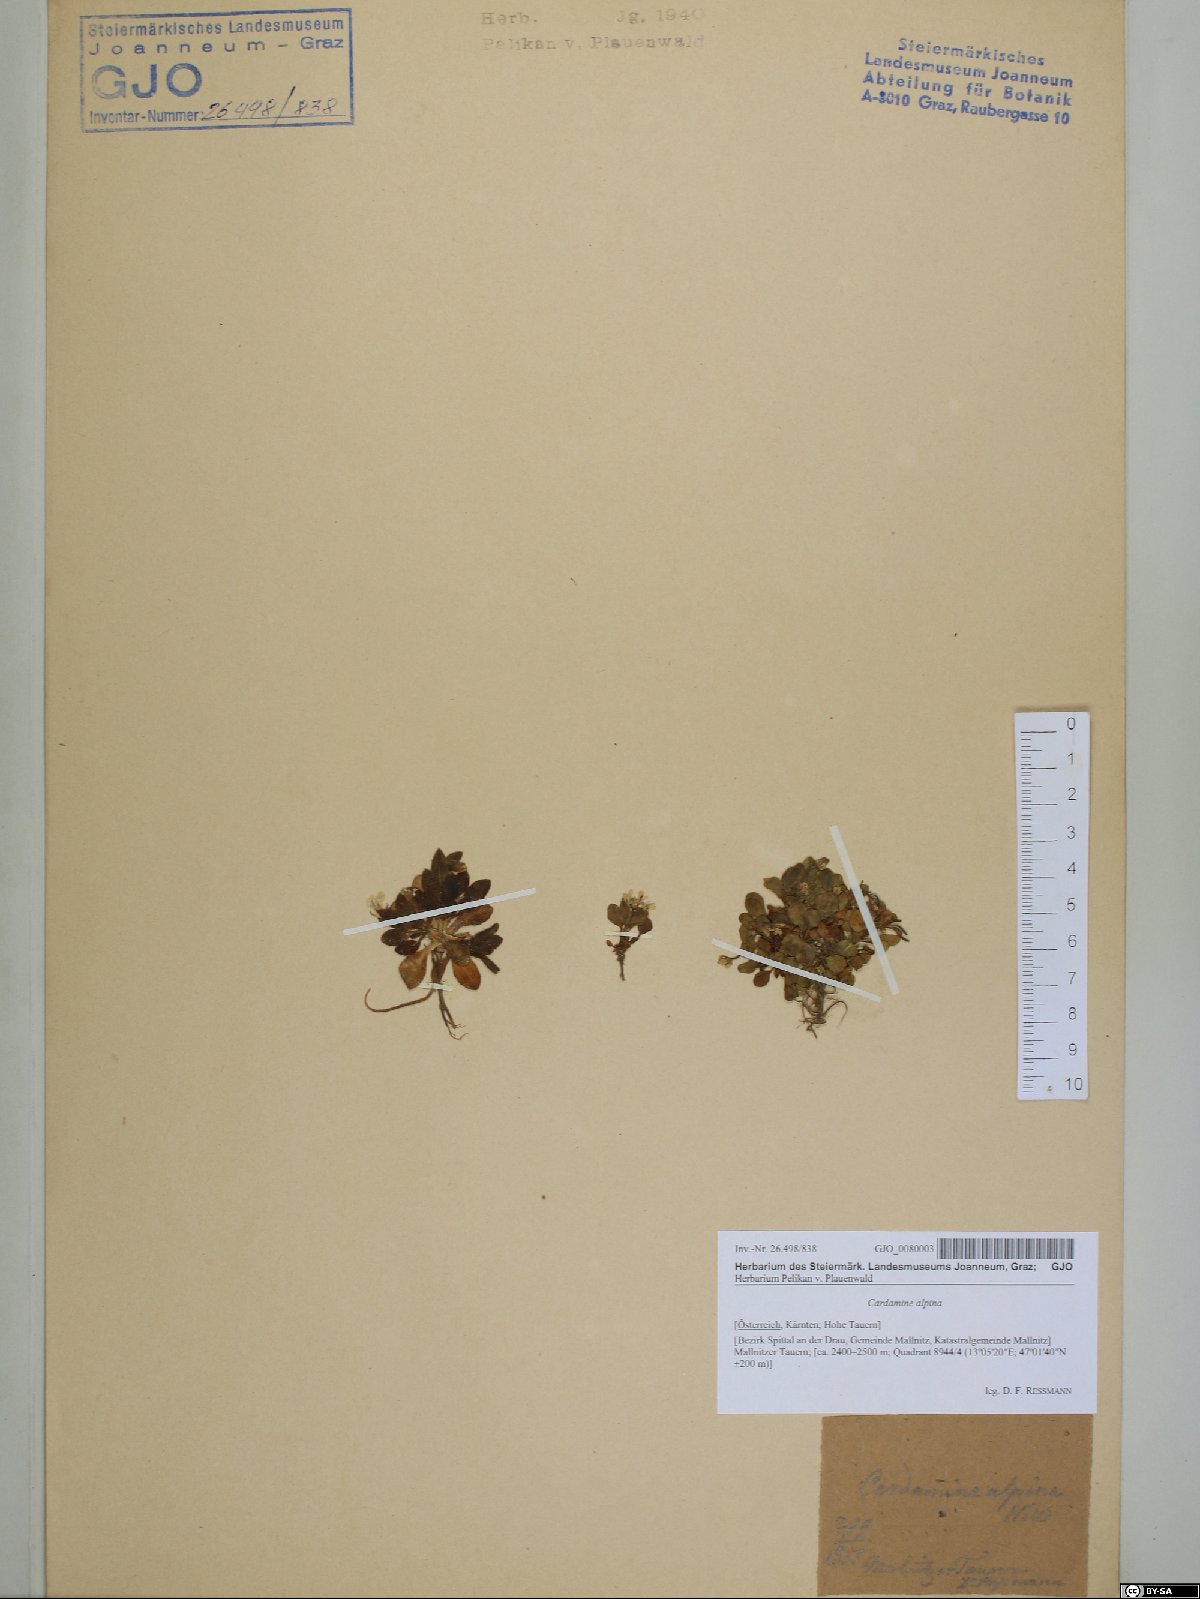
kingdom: Plantae
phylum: Tracheophyta
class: Magnoliopsida
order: Brassicales
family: Brassicaceae
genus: Cardamine
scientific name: Cardamine bellidifolia
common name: Alpine bittercress
